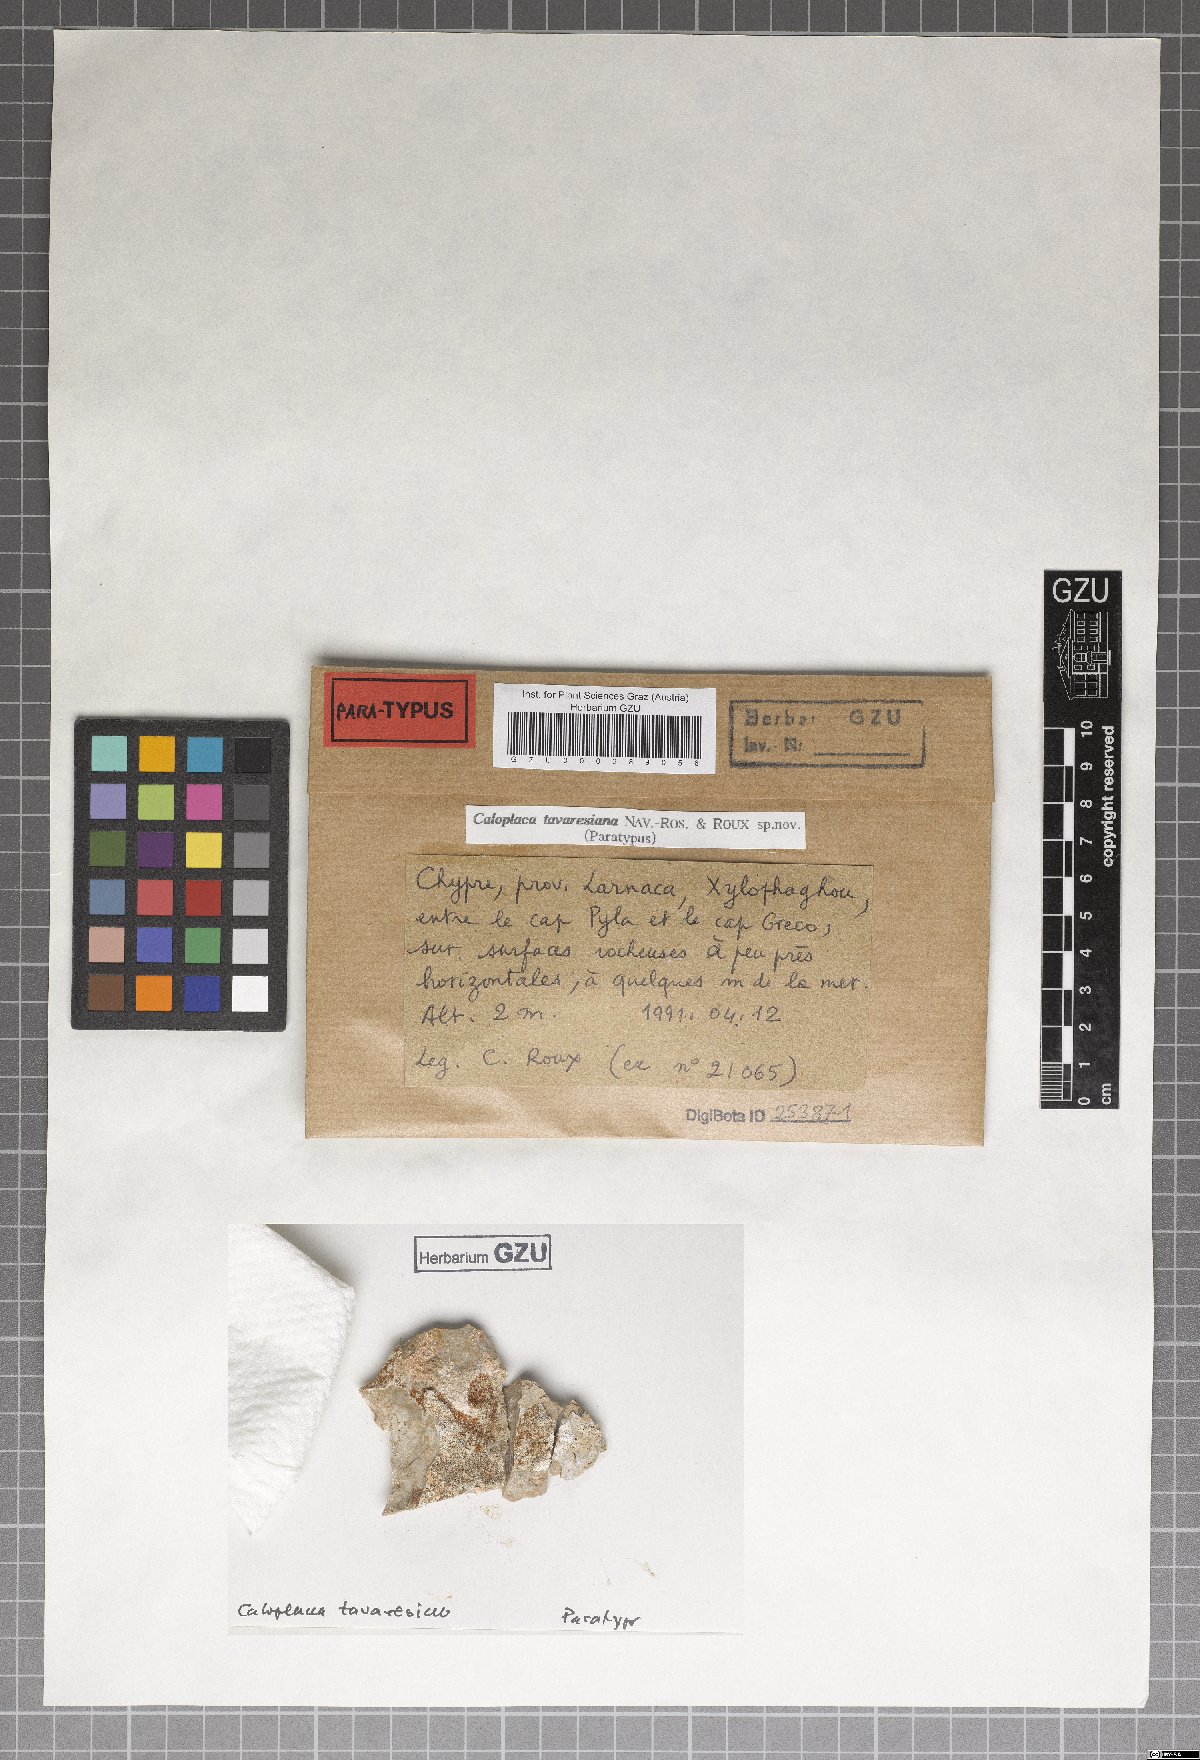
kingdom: Fungi
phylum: Ascomycota
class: Lecanoromycetes
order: Teloschistales
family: Teloschistaceae
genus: Flavoplaca
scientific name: Flavoplaca tavaresiana
